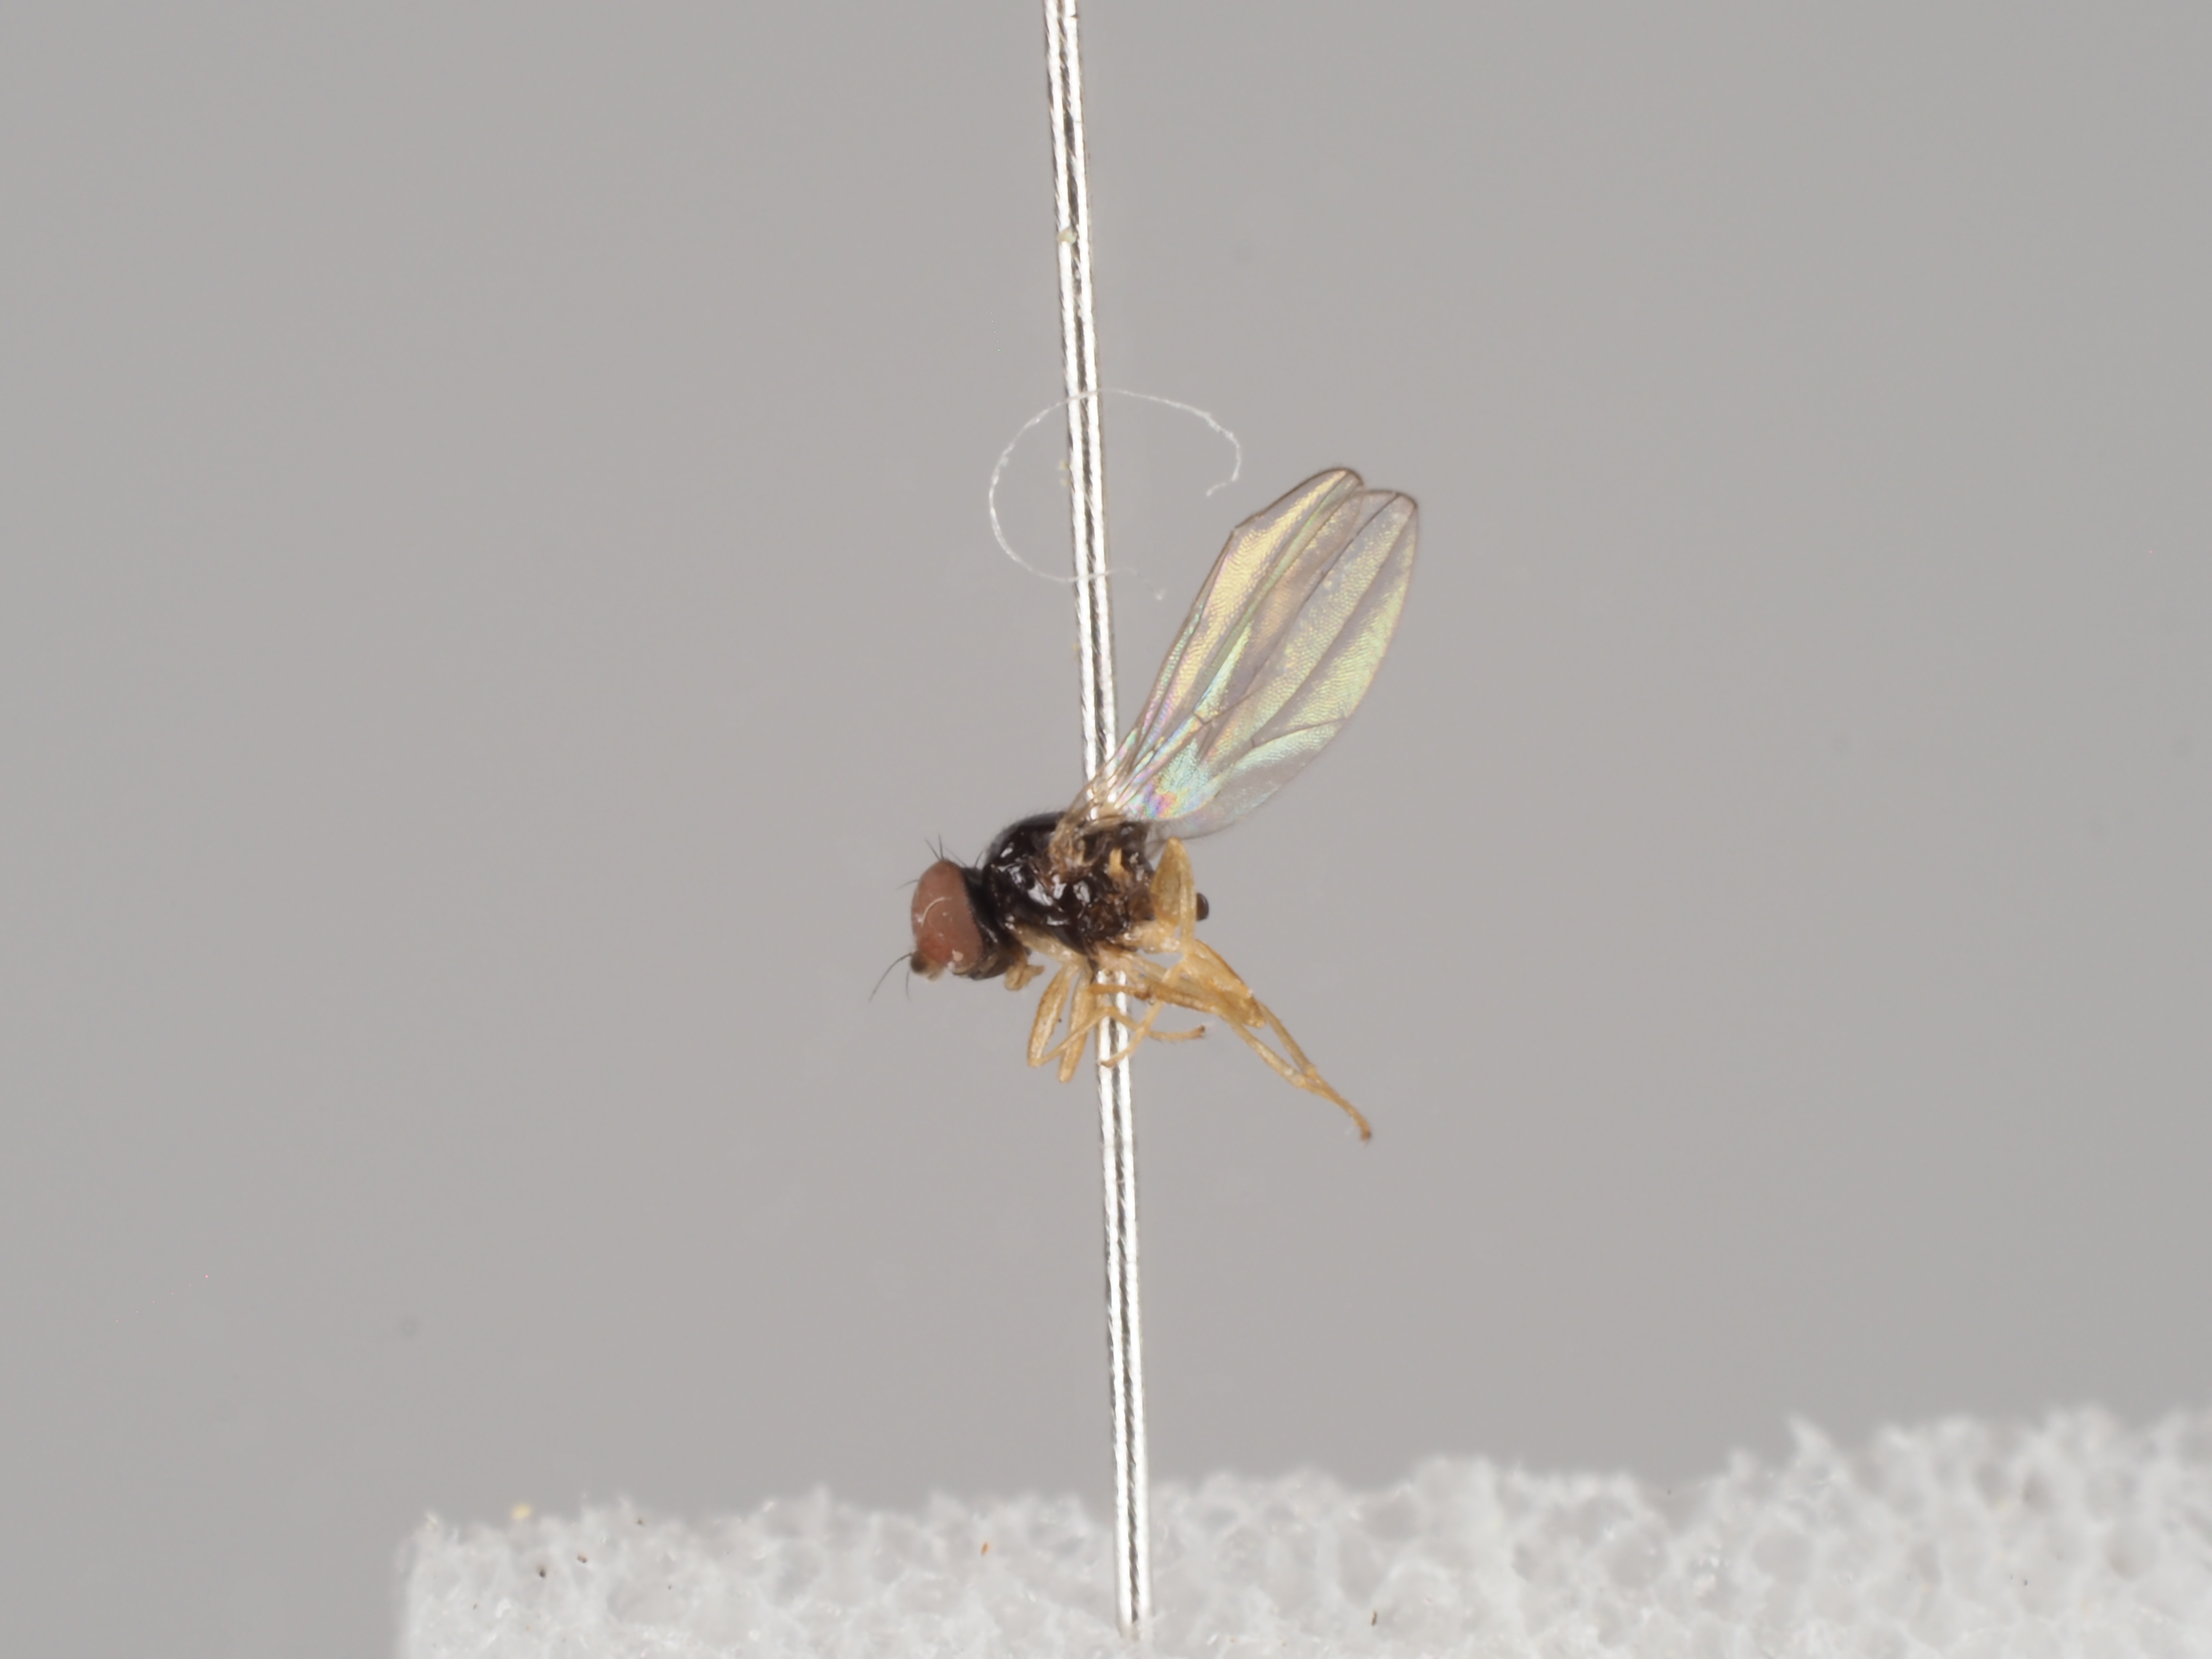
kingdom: Animalia
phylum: Arthropoda
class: Insecta
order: Diptera
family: Asteiidae
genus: Leiomyza
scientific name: Leiomyza dudai
